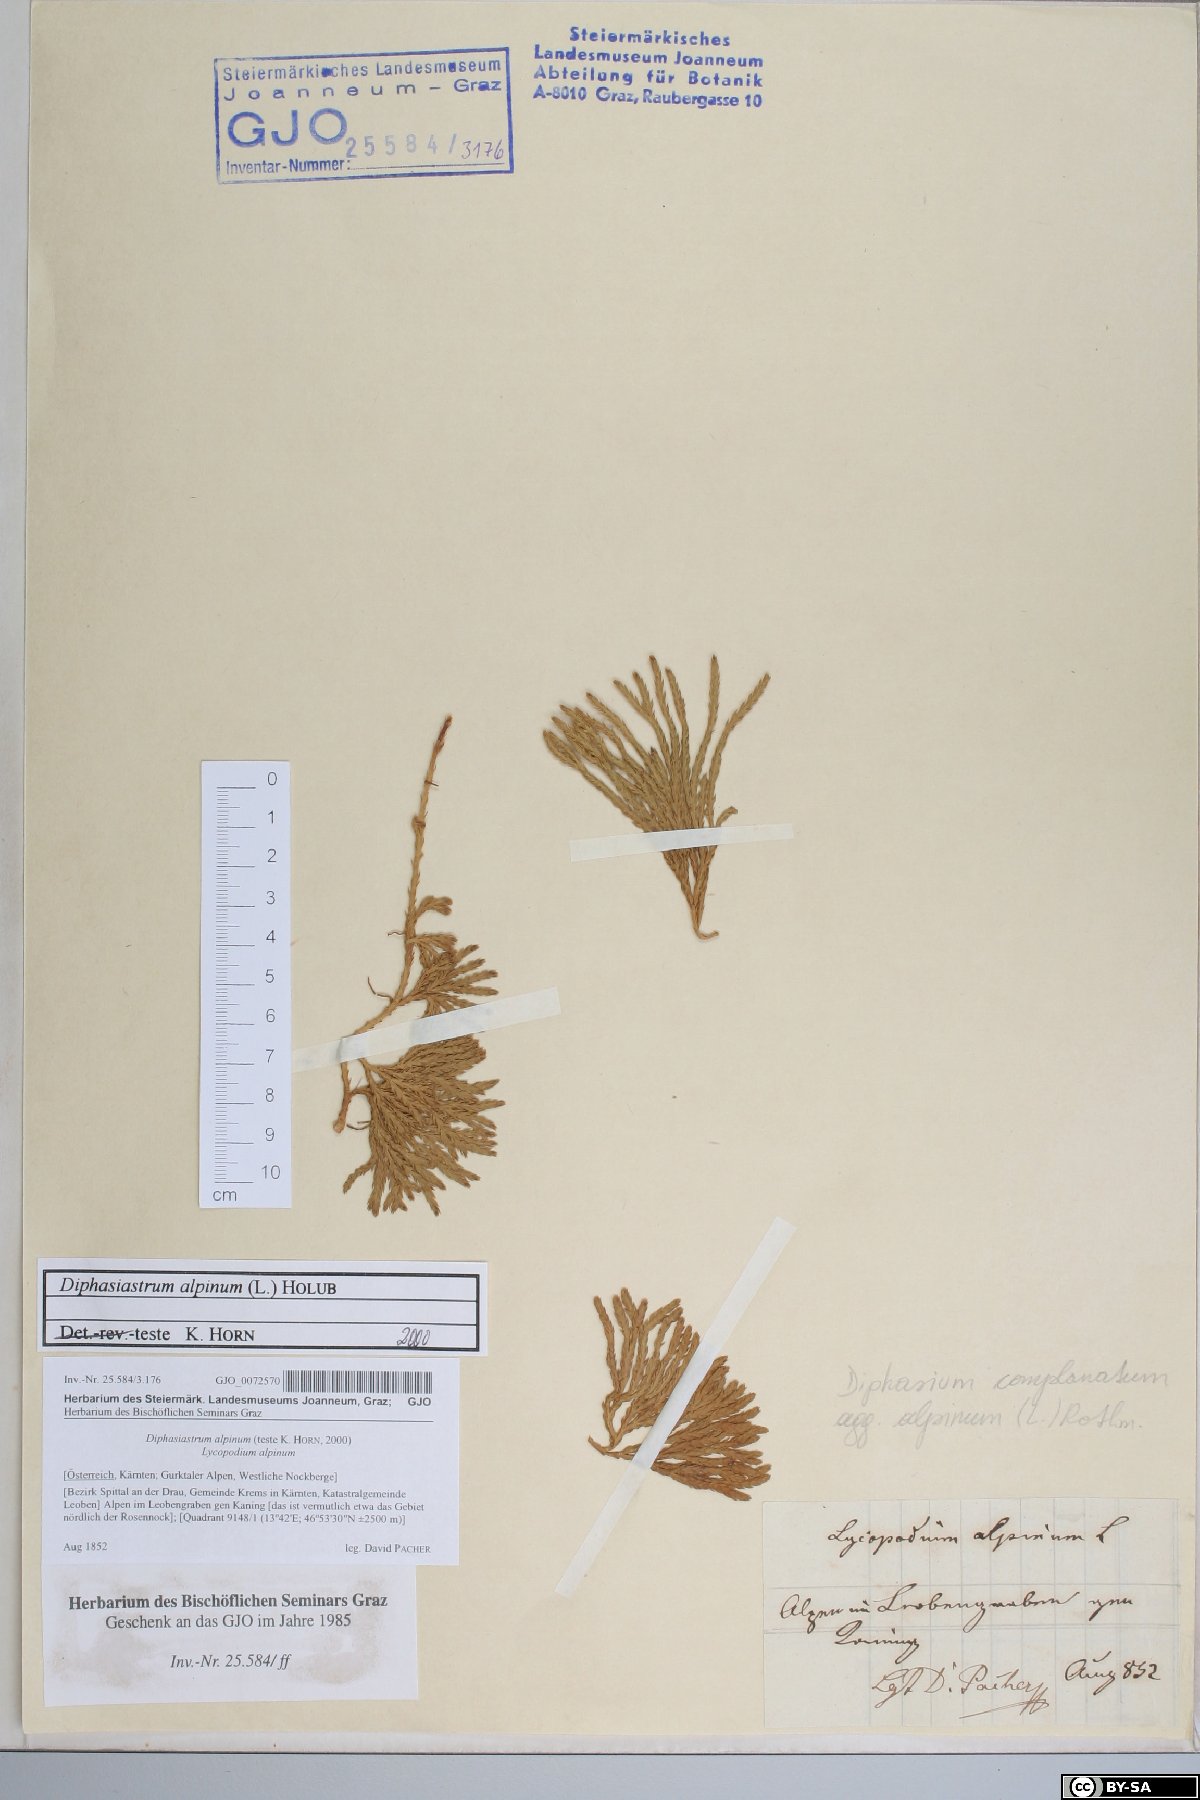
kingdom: Plantae
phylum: Tracheophyta
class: Lycopodiopsida
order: Lycopodiales
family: Lycopodiaceae
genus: Diphasiastrum
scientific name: Diphasiastrum alpinum
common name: Alpine clubmoss
